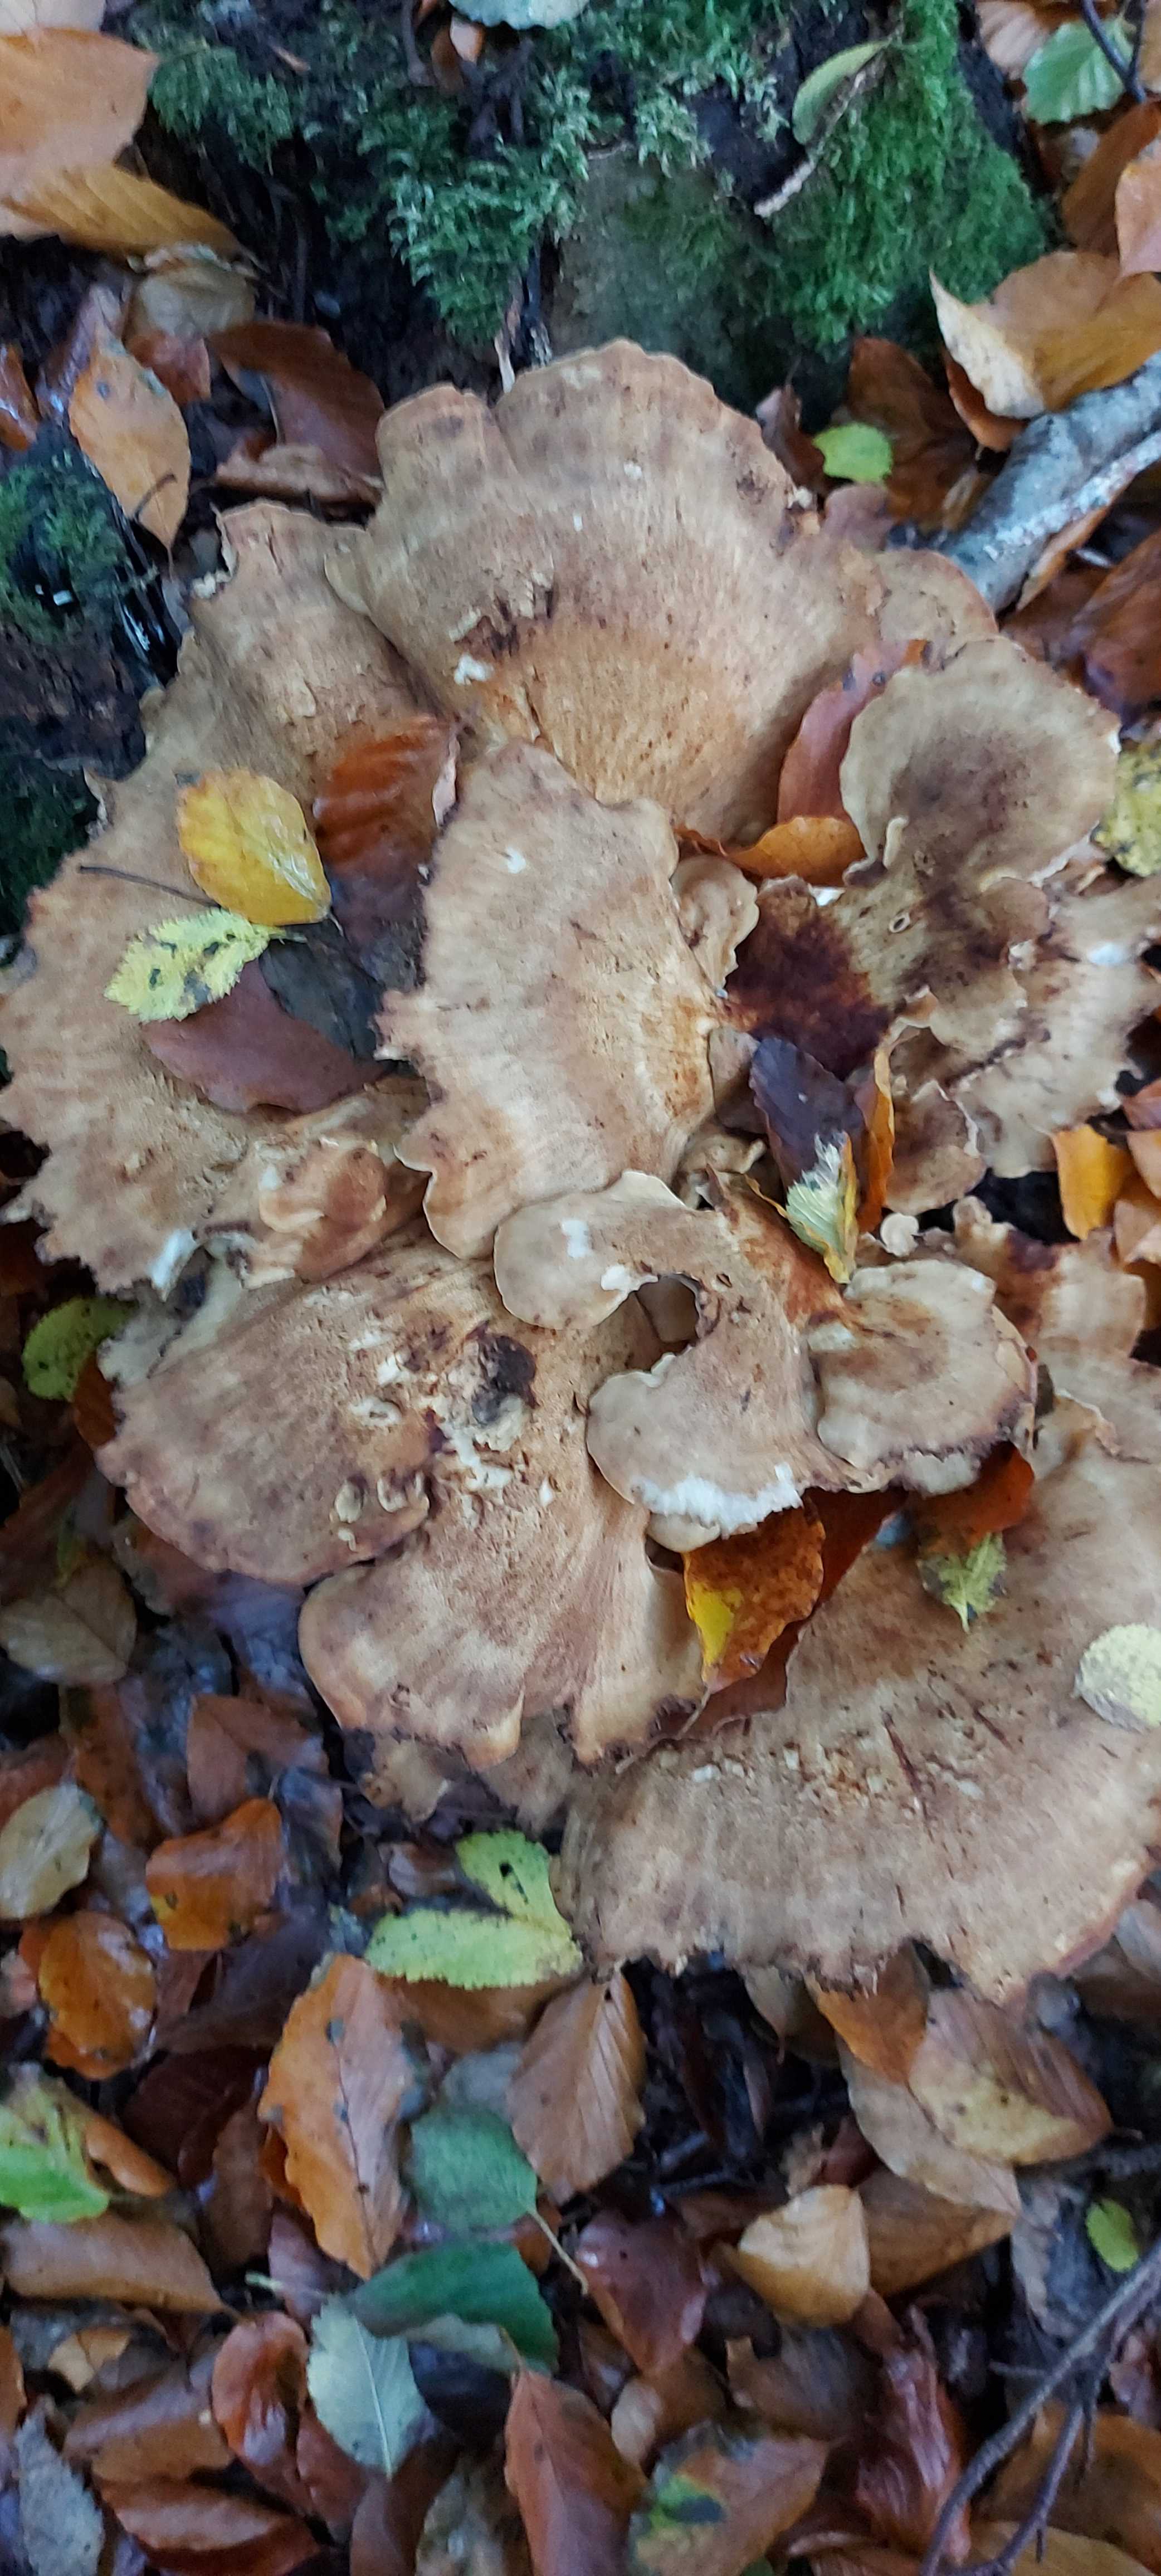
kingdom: Fungi
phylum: Basidiomycota
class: Agaricomycetes
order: Polyporales
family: Meripilaceae
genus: Meripilus
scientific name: Meripilus giganteus
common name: kæmpeporesvamp
